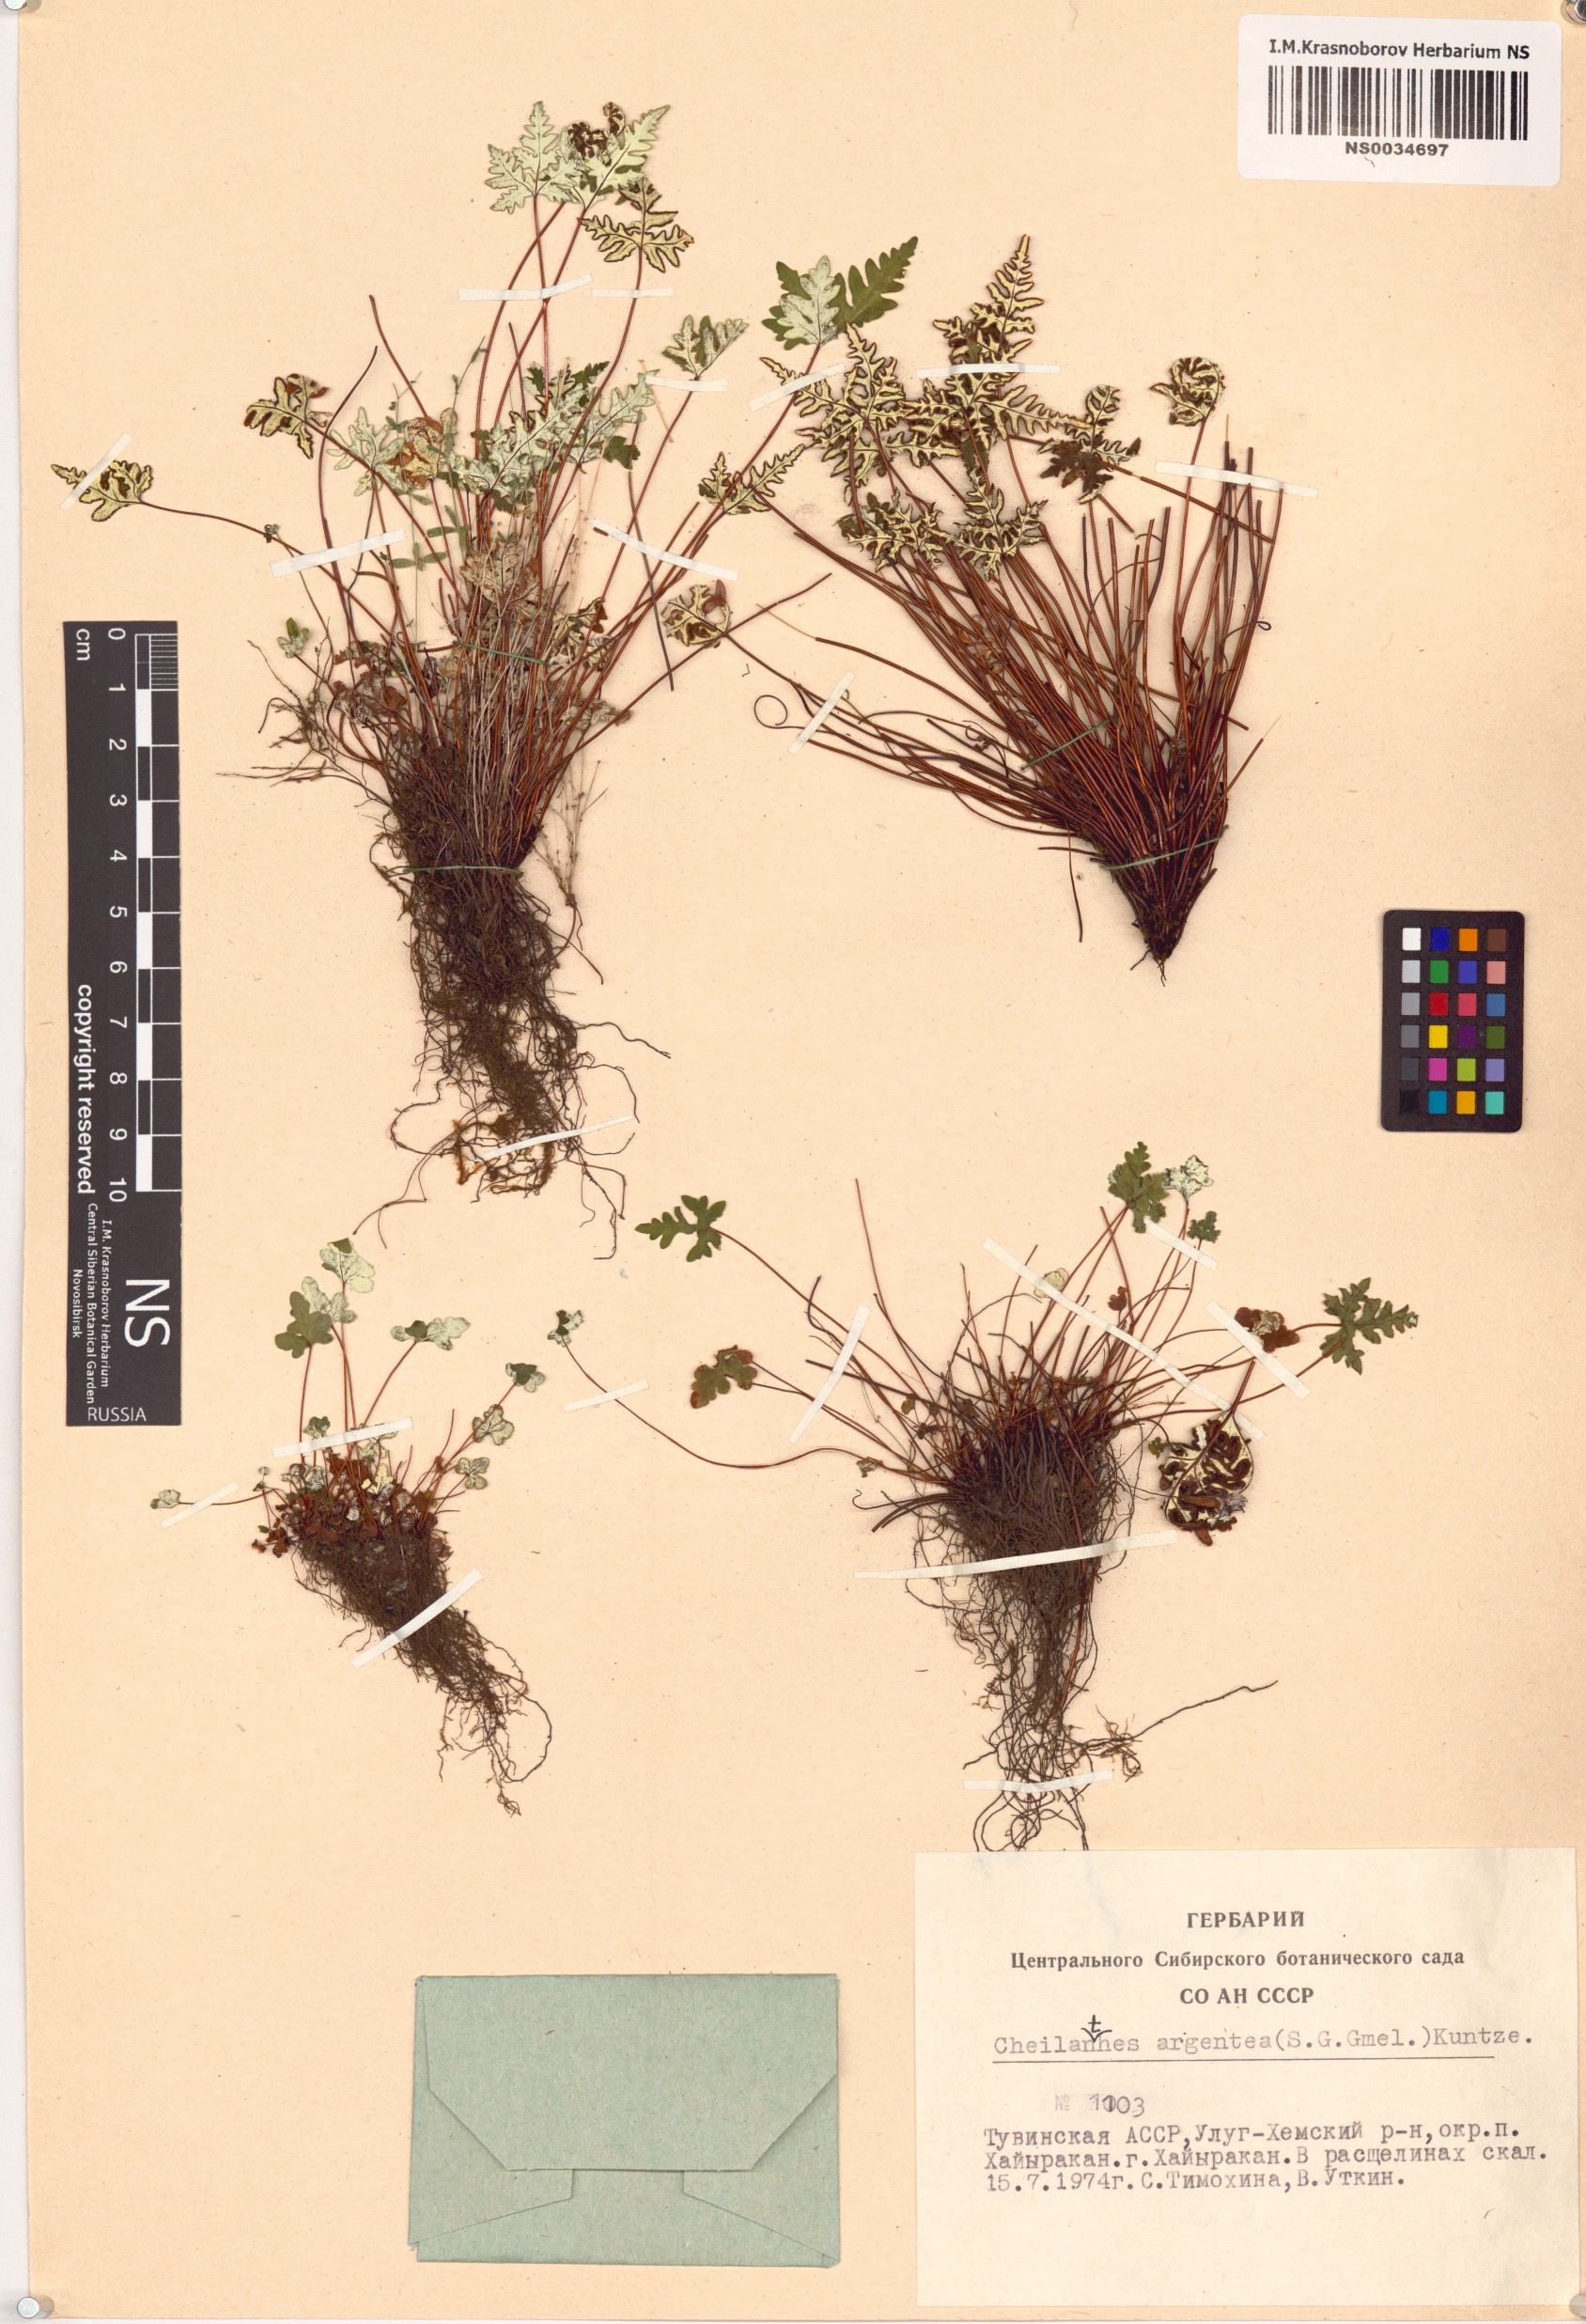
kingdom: Plantae
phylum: Tracheophyta
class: Polypodiopsida
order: Polypodiales
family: Pteridaceae
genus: Aleuritopteris
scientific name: Aleuritopteris argentea
